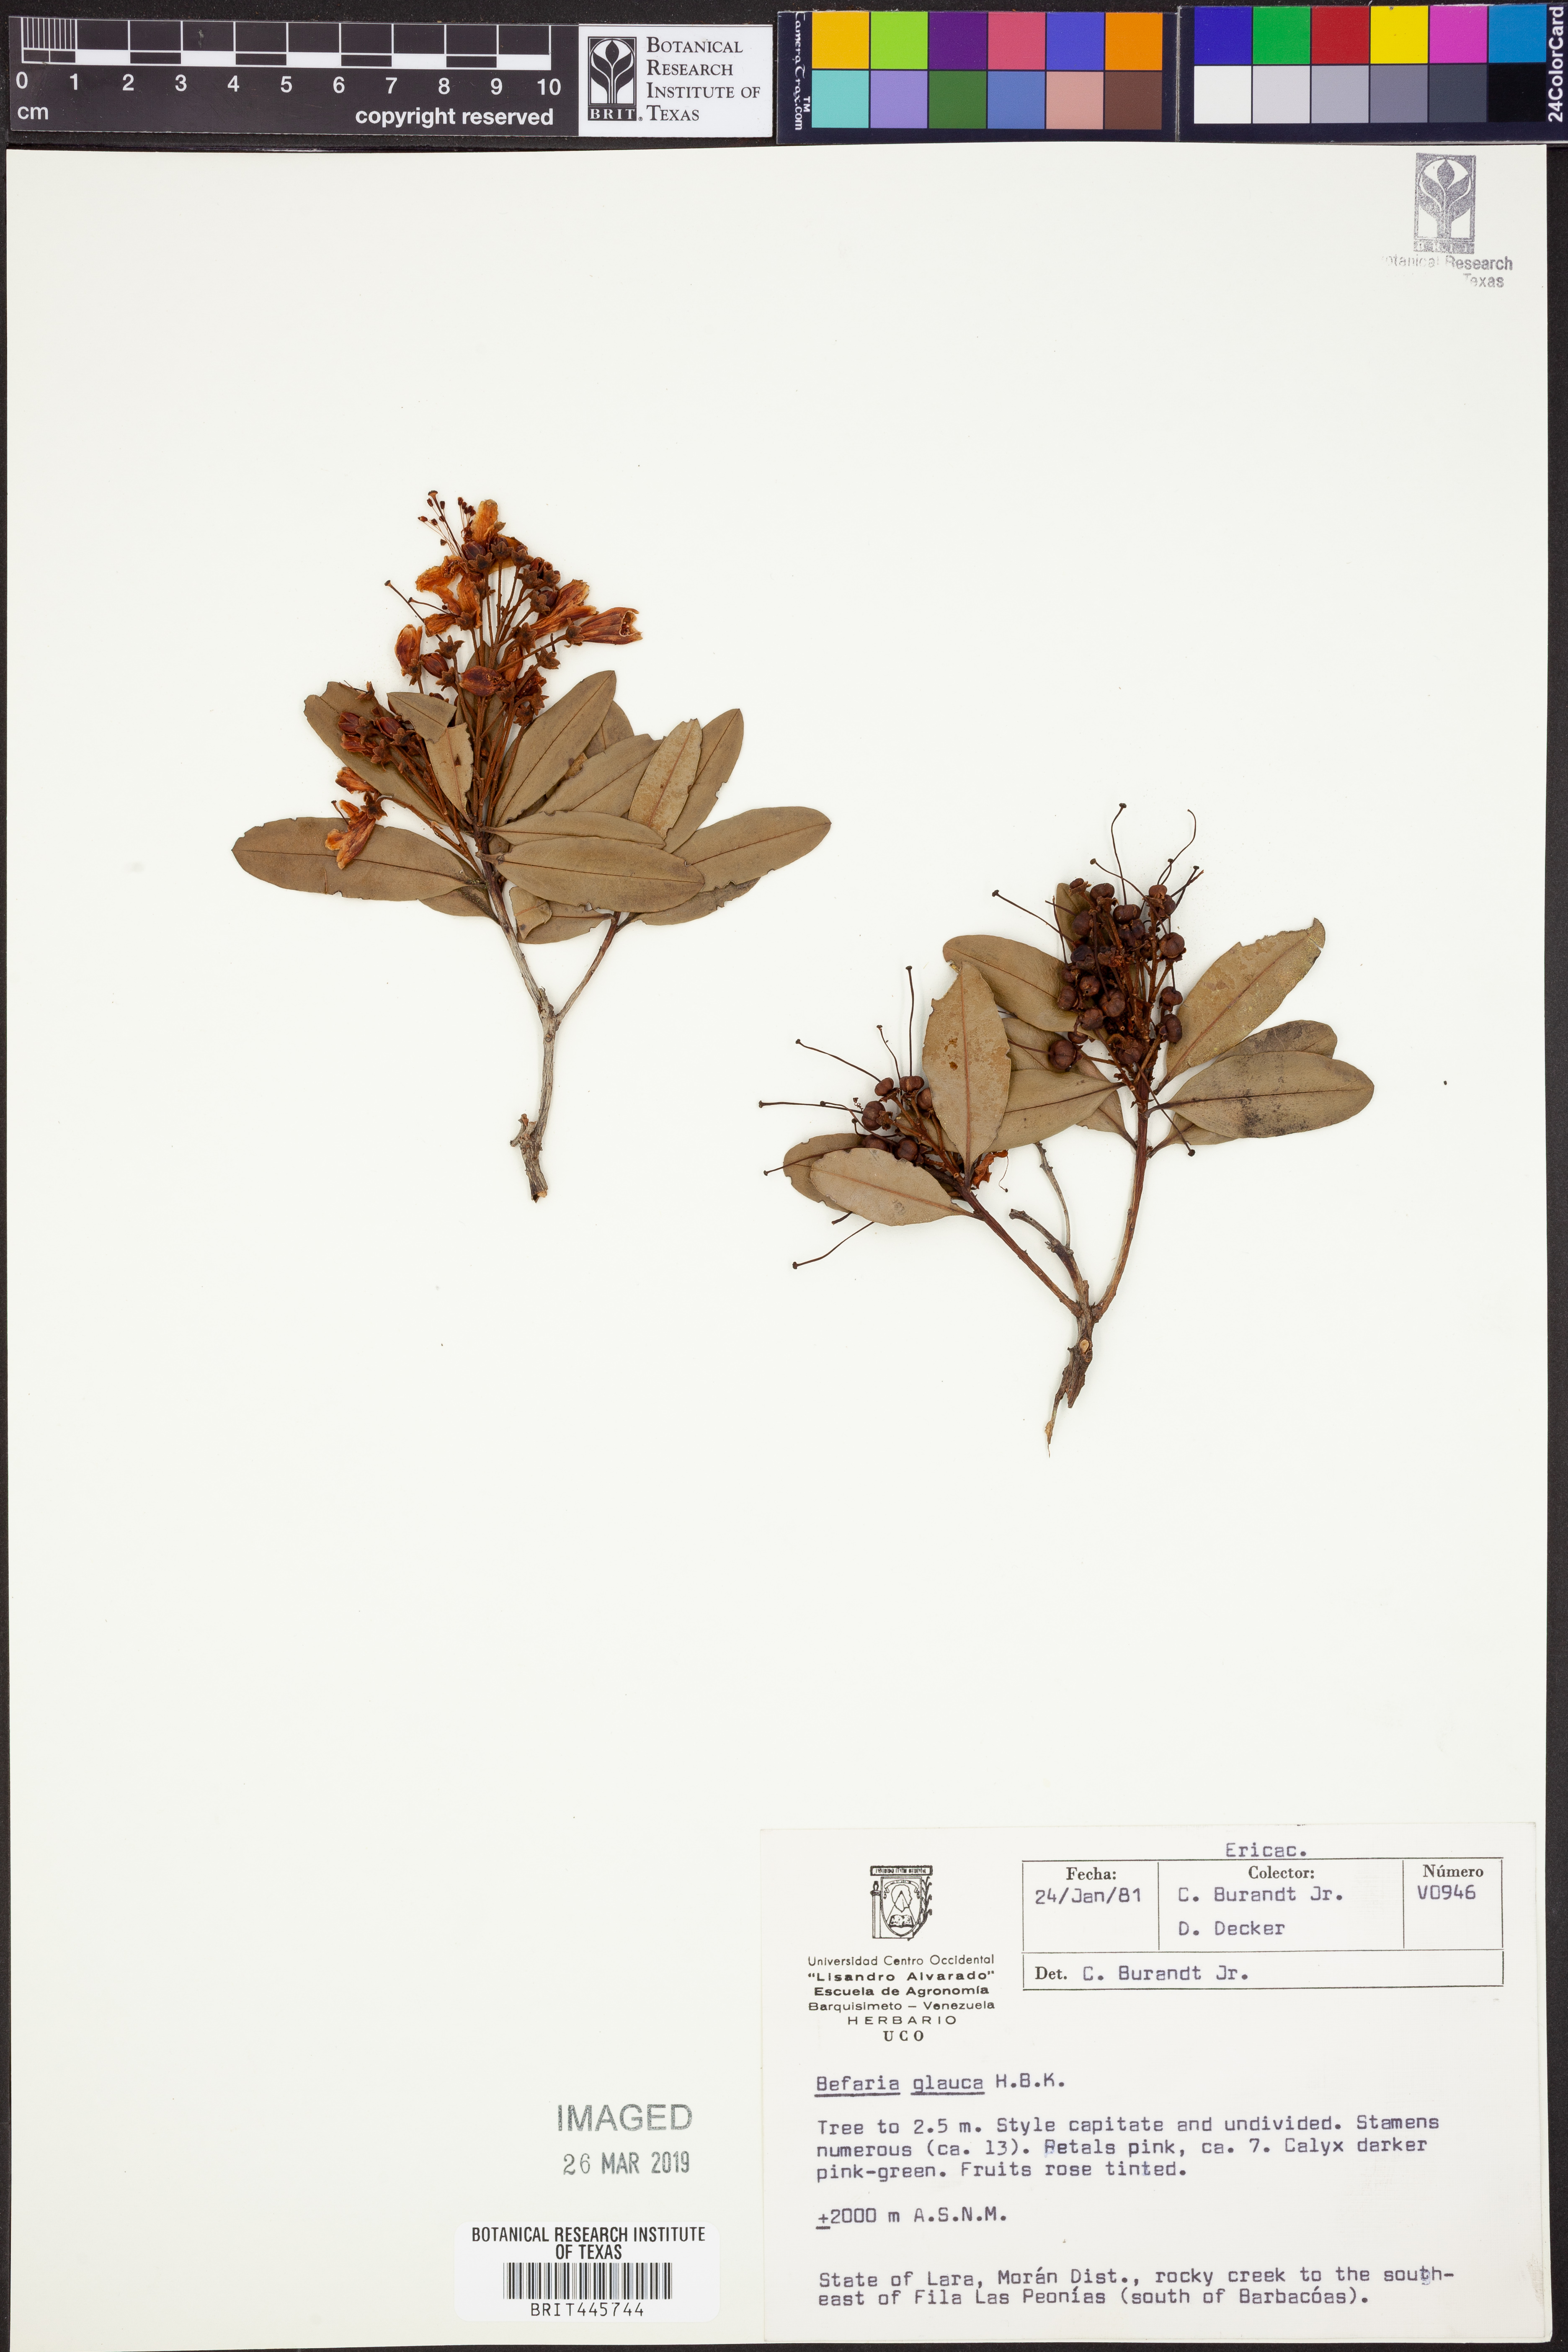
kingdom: Plantae
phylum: Tracheophyta
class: Magnoliopsida
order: Ericales
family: Ericaceae
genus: Bejaria
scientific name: Bejaria aestuans
